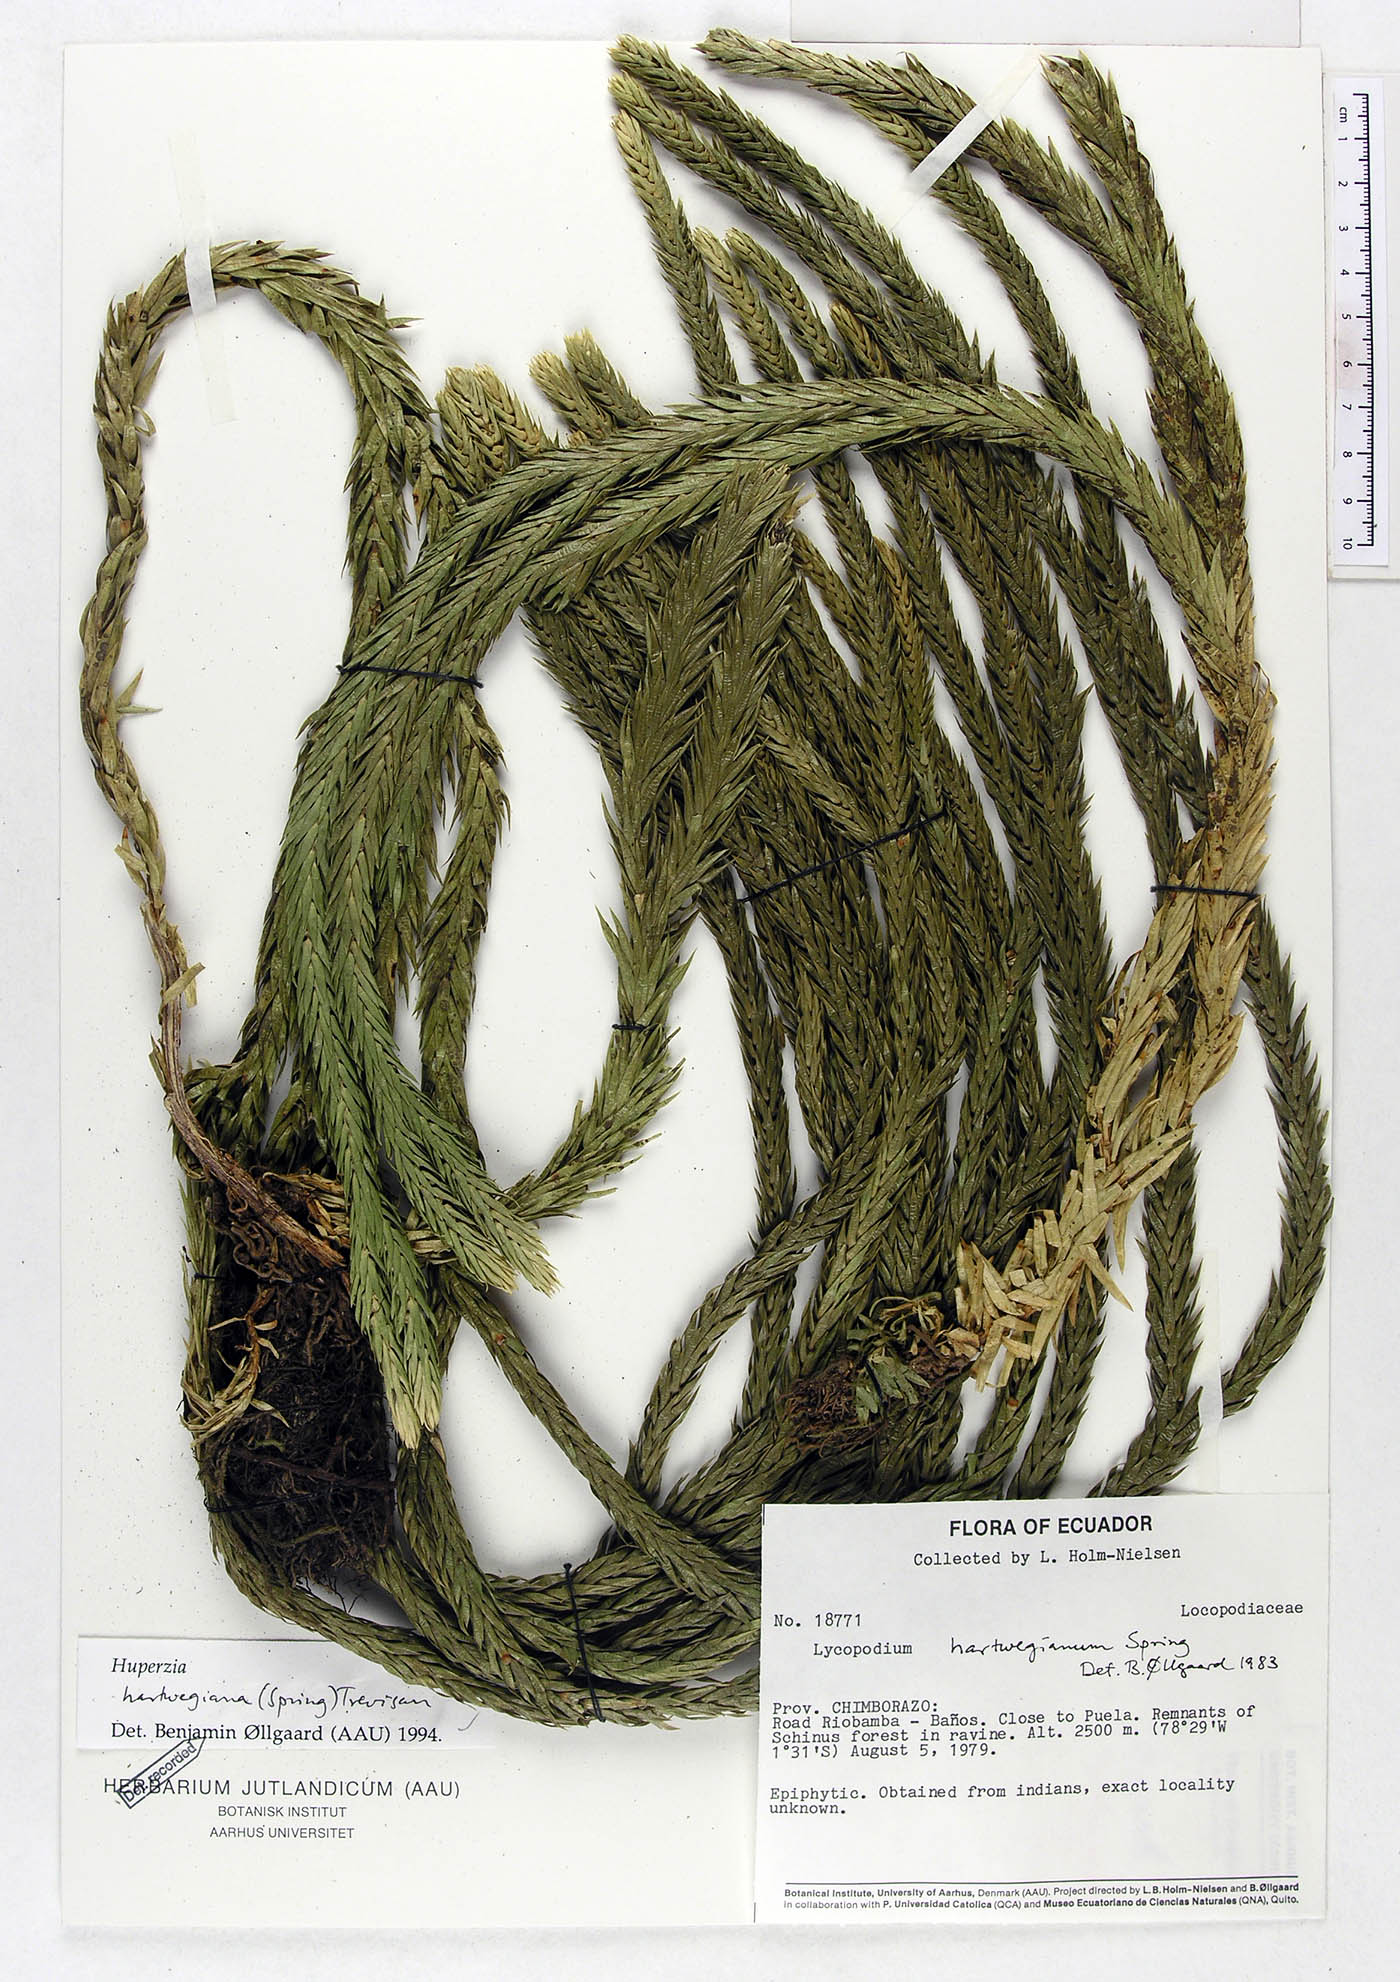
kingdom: Plantae
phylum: Tracheophyta
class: Lycopodiopsida
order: Lycopodiales
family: Lycopodiaceae
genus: Phlegmariurus
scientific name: Phlegmariurus hartwegianus
